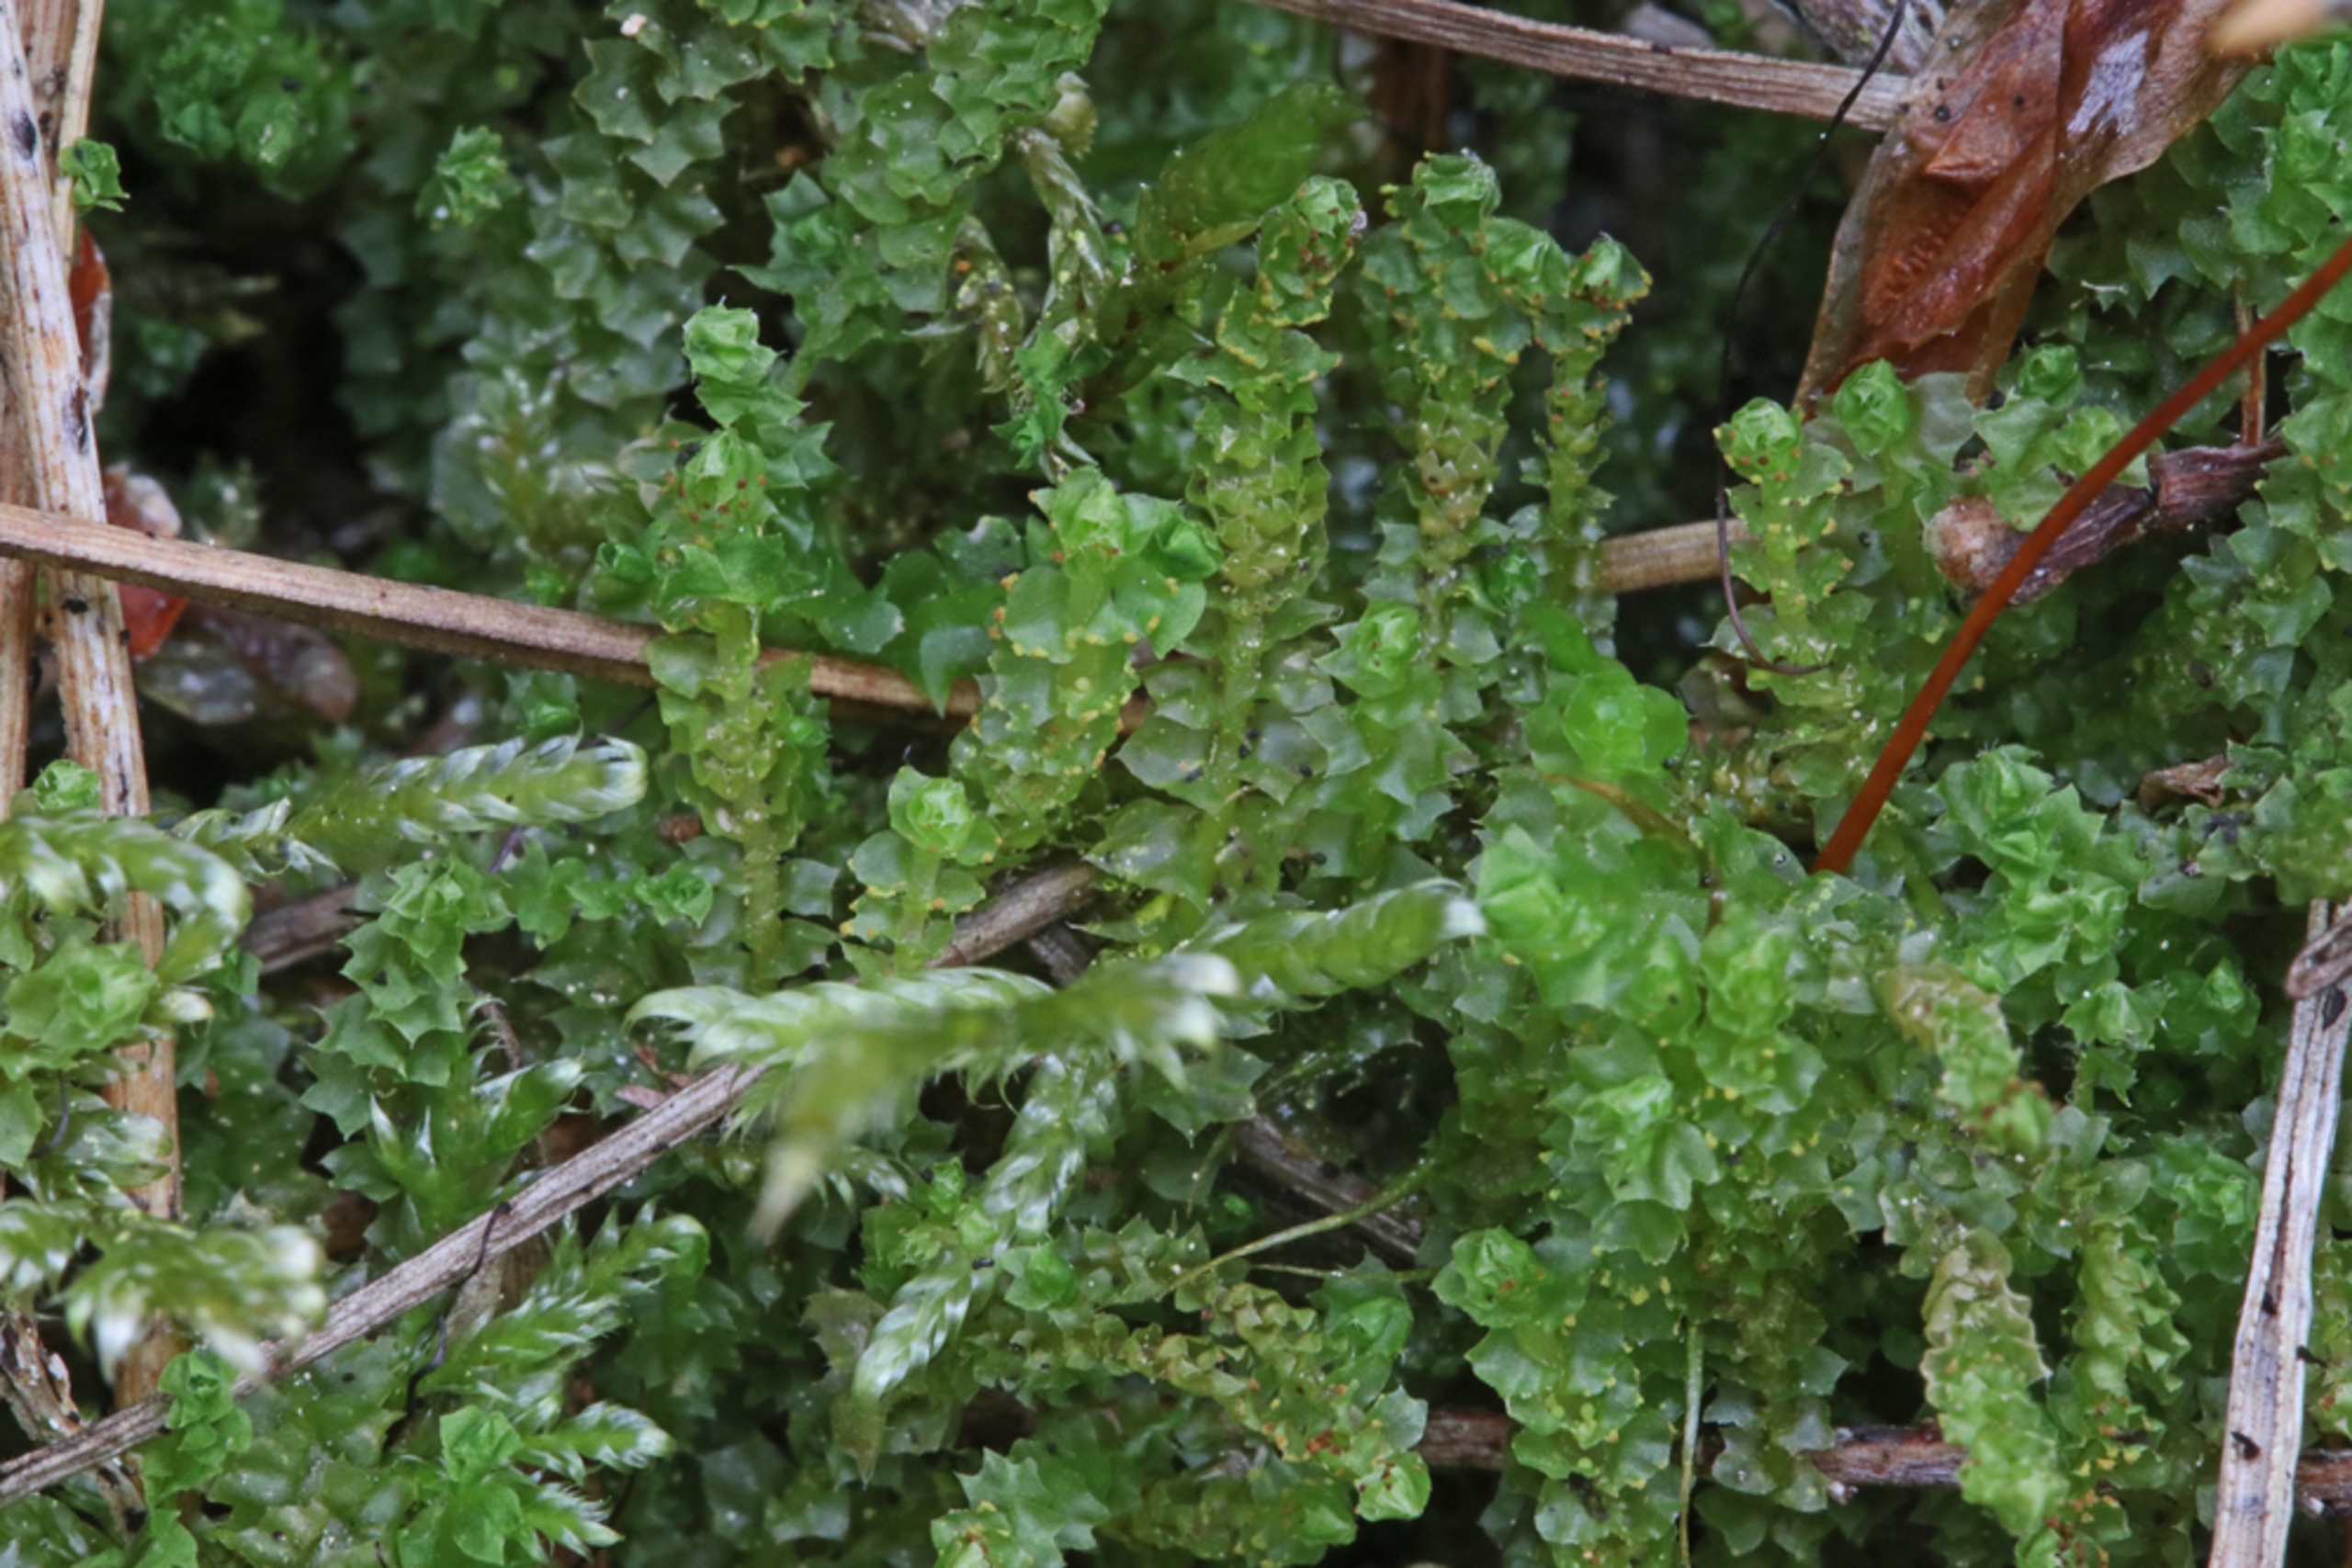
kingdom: Plantae
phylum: Marchantiophyta
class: Jungermanniopsida
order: Jungermanniales
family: Anastrophyllaceae
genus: Barbilophozia
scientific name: Barbilophozia hatcheri
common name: Spidsfliget flerfligmos
